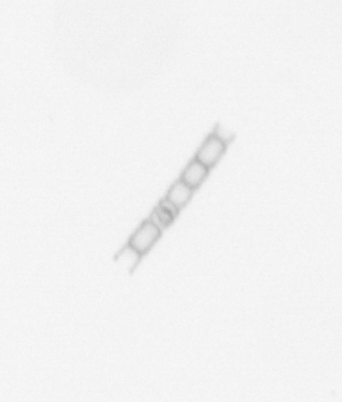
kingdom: Chromista
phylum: Ochrophyta
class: Bacillariophyceae
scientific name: Bacillariophyceae
